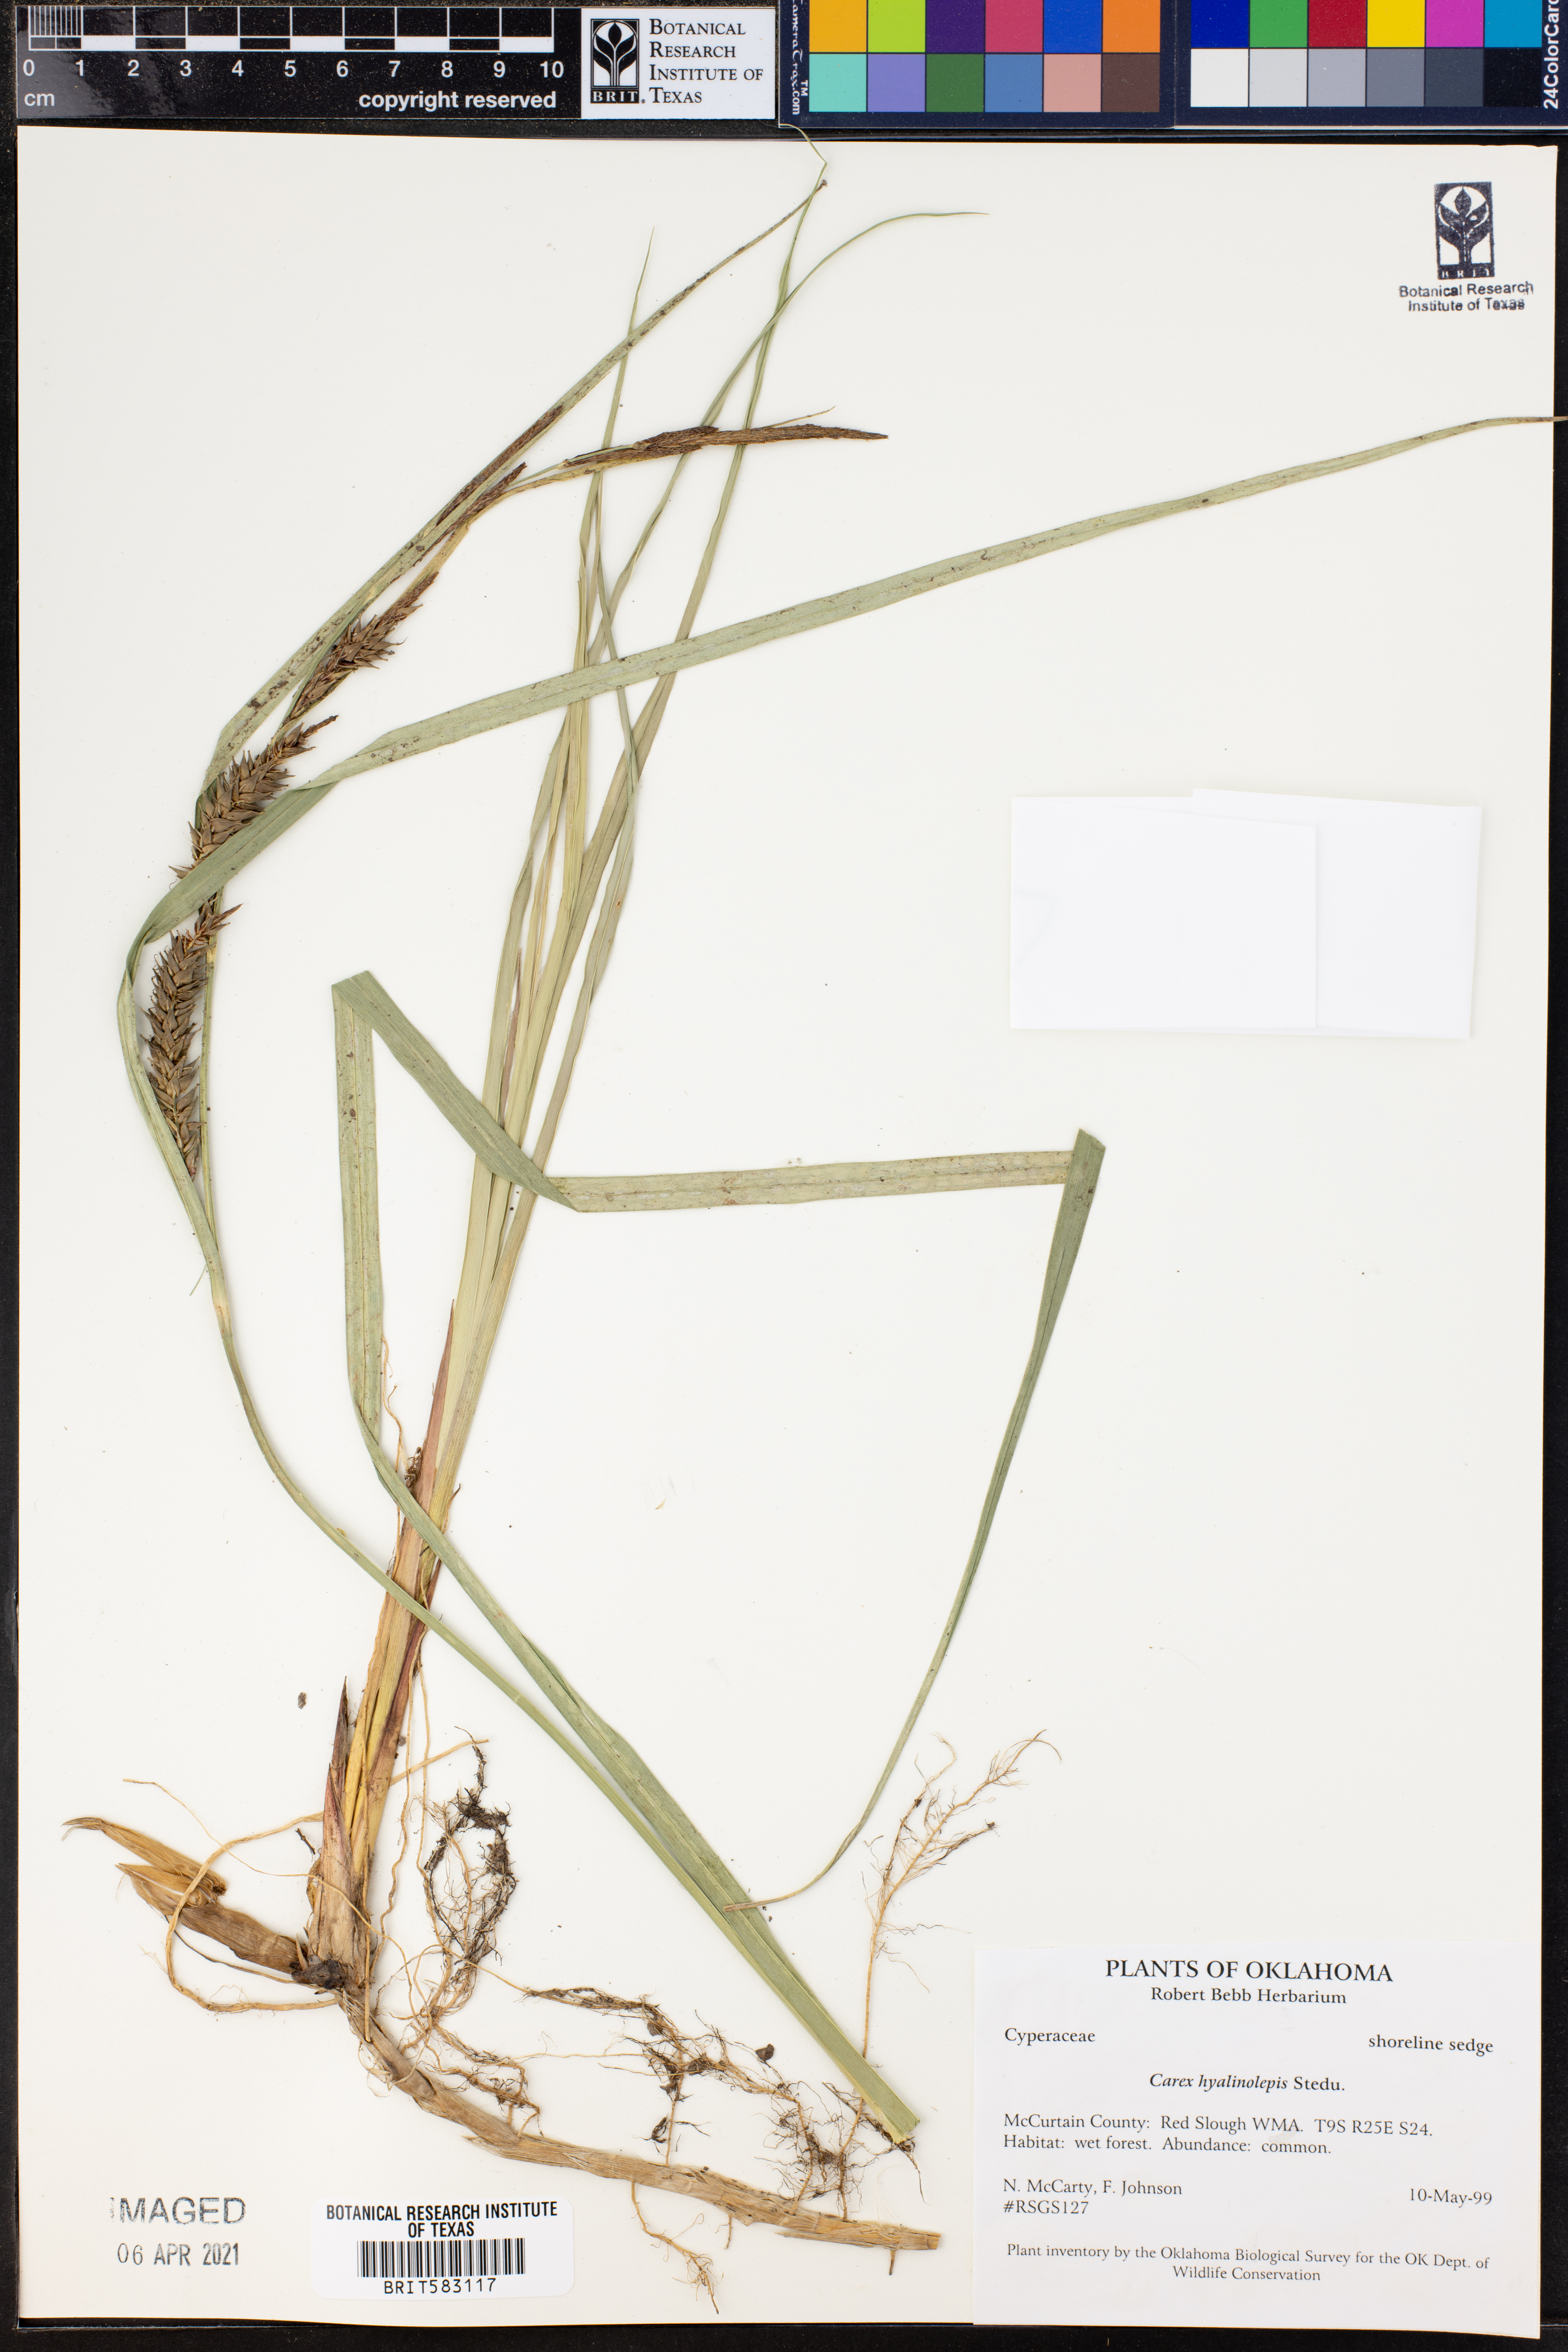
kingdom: Plantae
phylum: Tracheophyta
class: Liliopsida
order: Poales
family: Cyperaceae
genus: Carex
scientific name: Carex hyalinolepis
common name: Shoreline sedge
